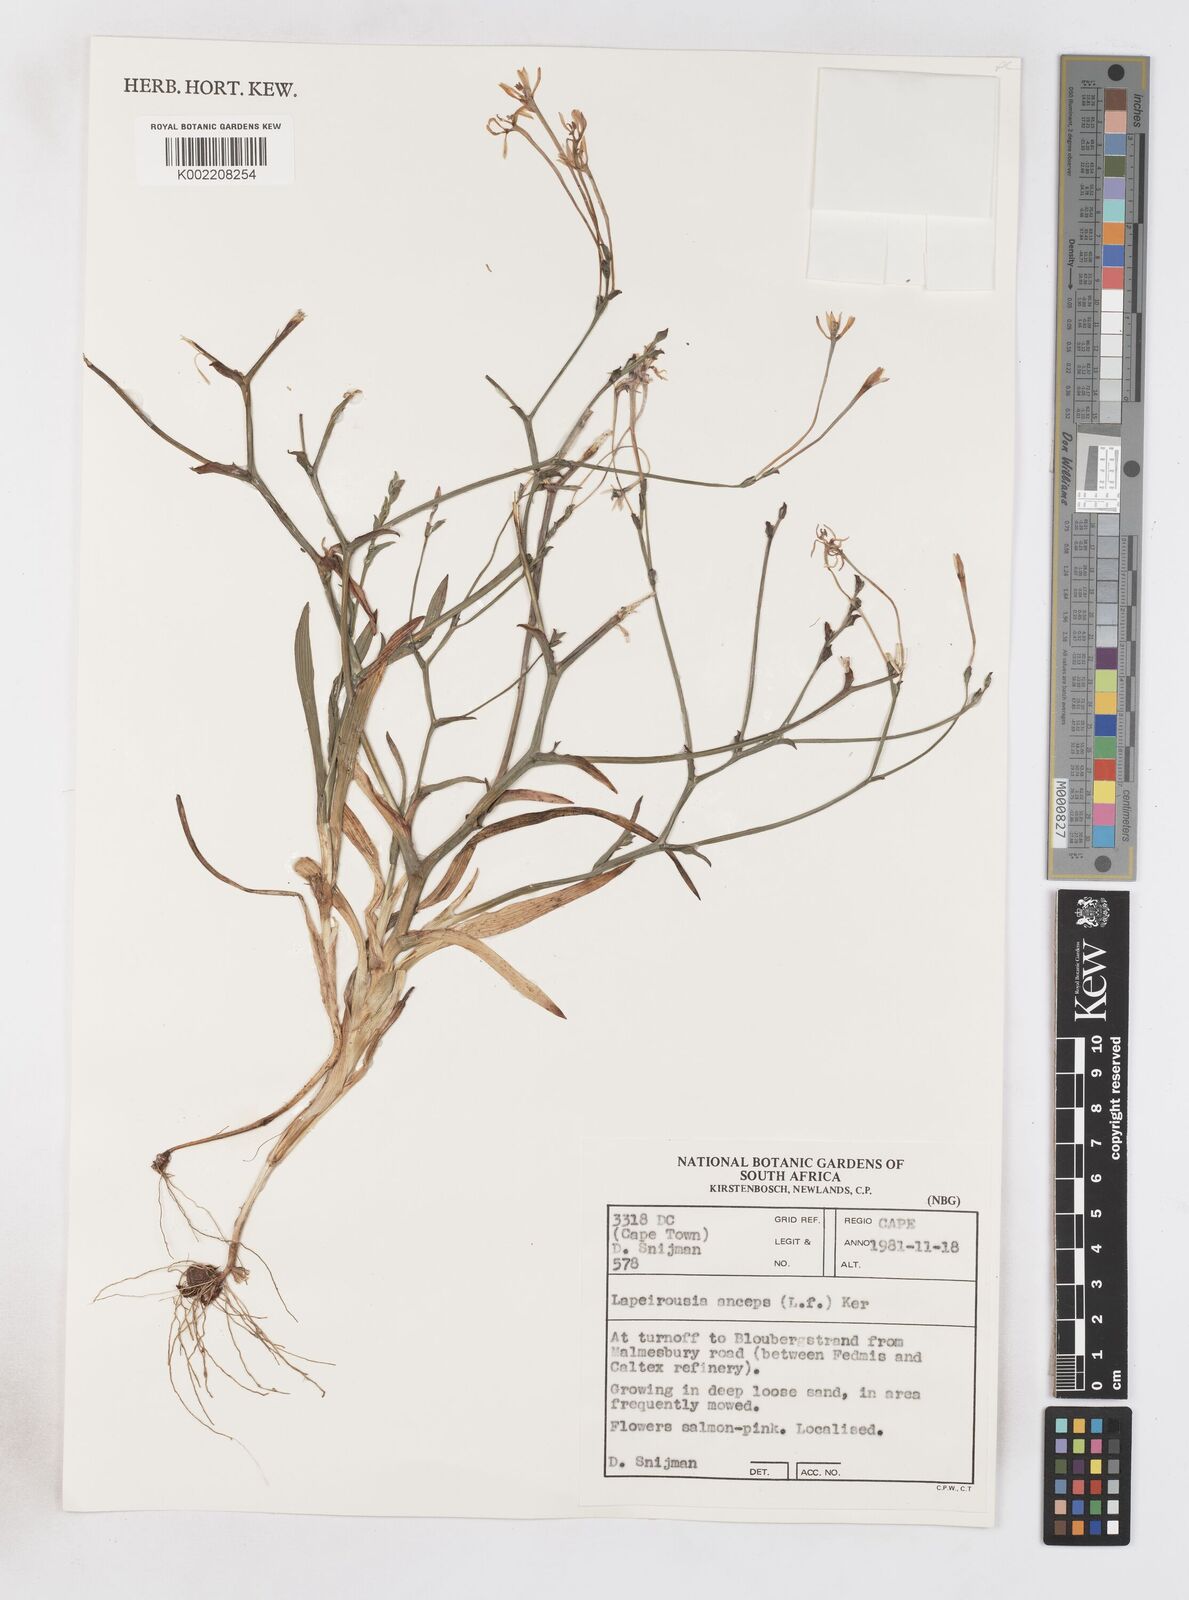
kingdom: Plantae
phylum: Tracheophyta
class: Liliopsida
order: Asparagales
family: Iridaceae
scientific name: Iridaceae
